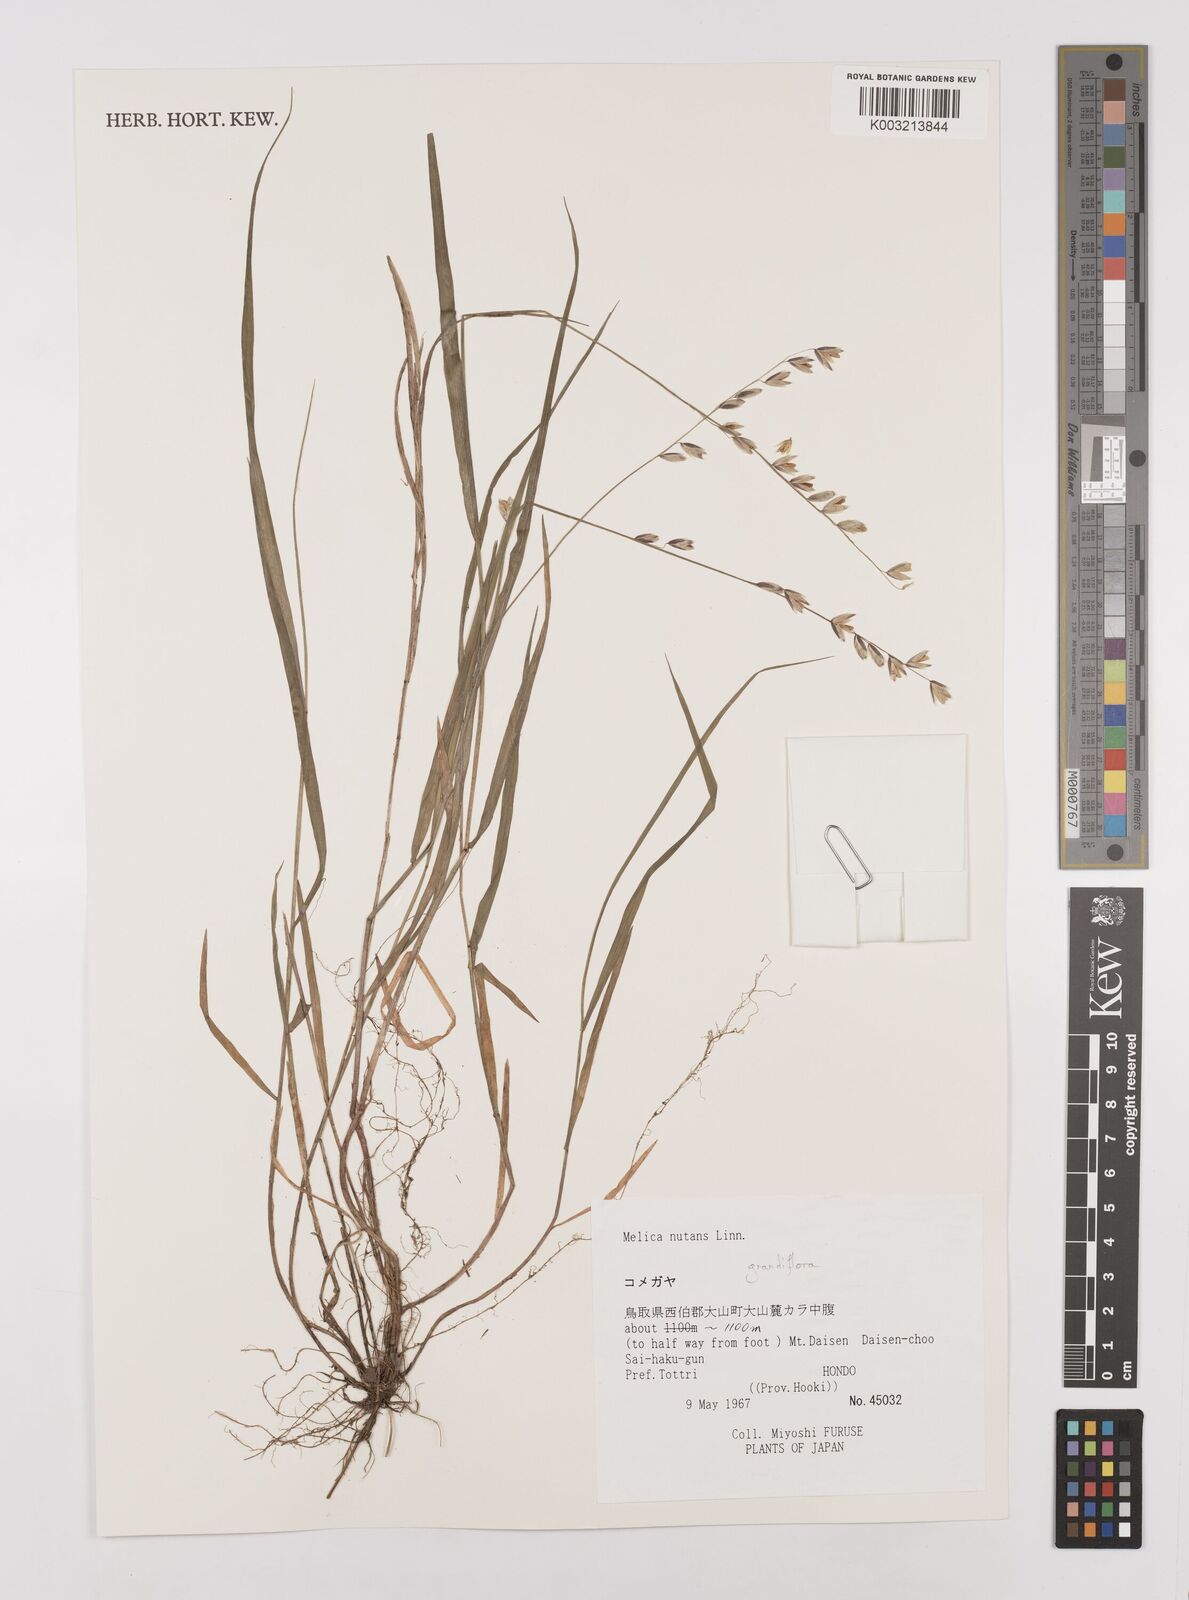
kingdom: Plantae
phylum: Tracheophyta
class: Liliopsida
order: Poales
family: Poaceae
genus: Melica
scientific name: Melica nutans
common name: Mountain melick
